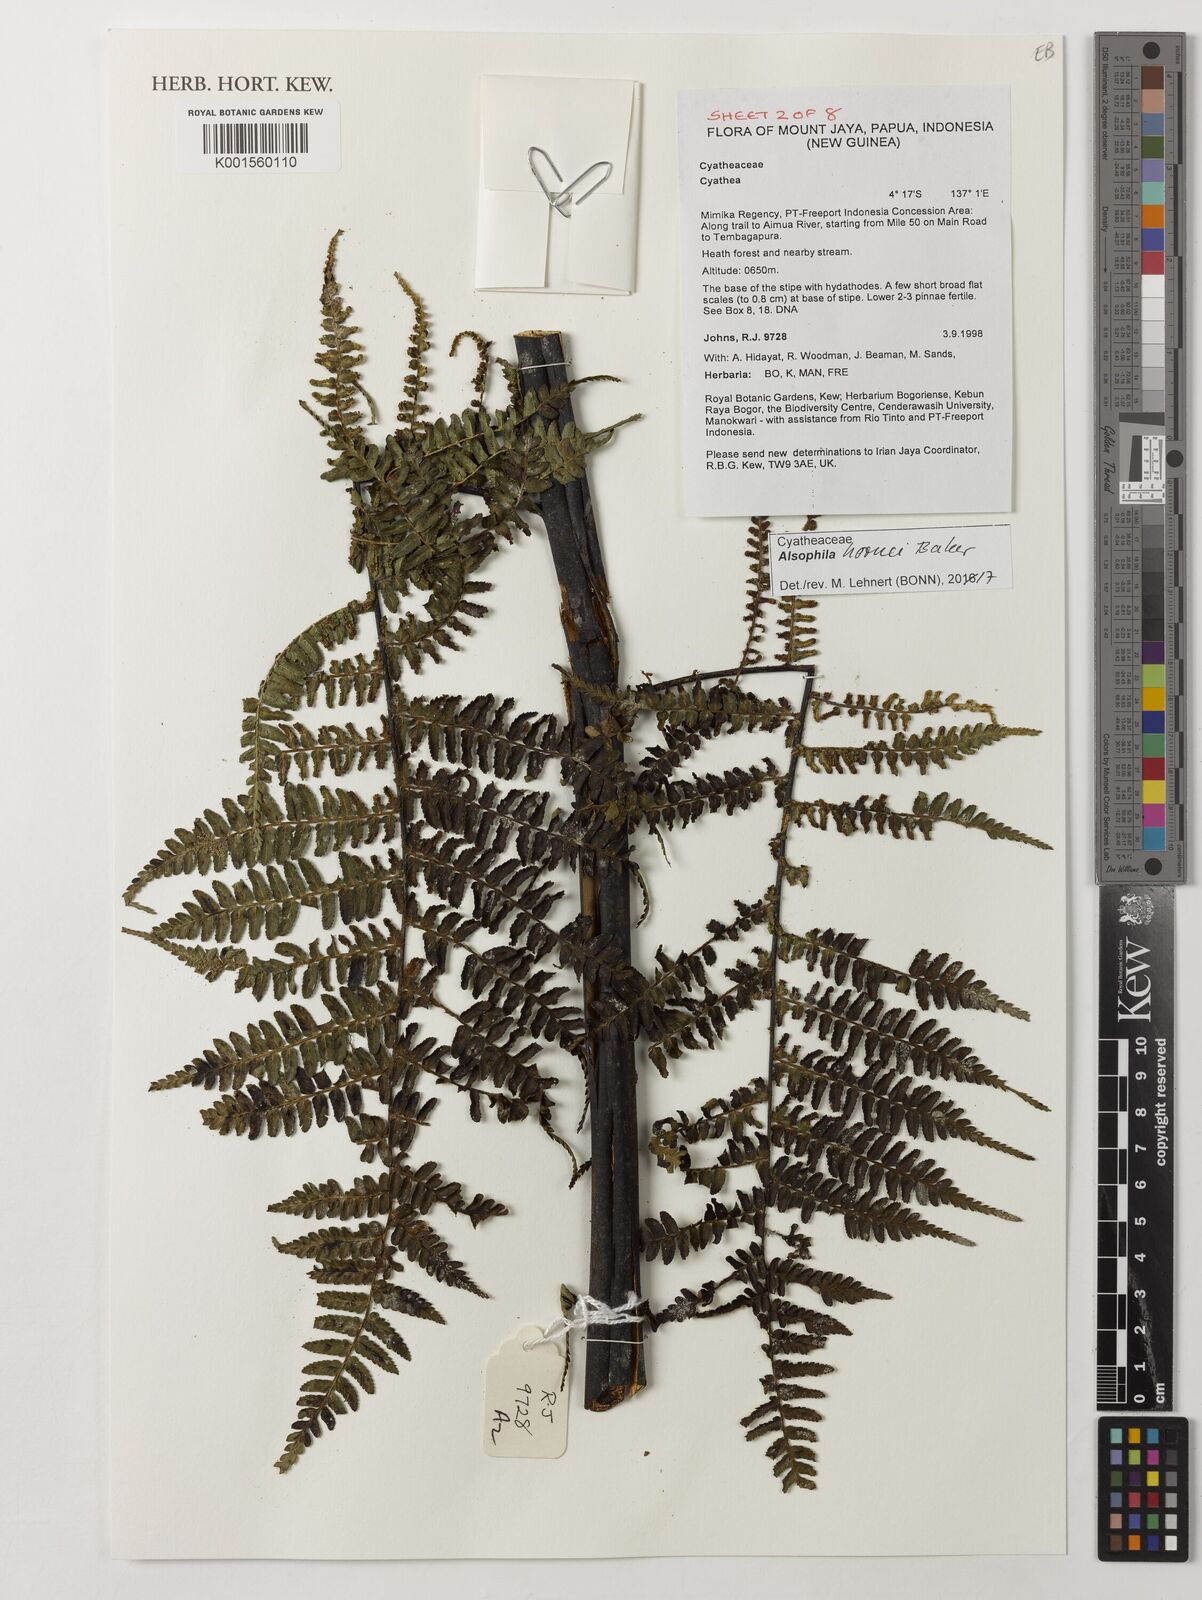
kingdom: Plantae
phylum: Tracheophyta
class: Polypodiopsida
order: Cyatheales
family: Cyatheaceae
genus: Gymnosphaera
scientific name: Gymnosphaera hornei
